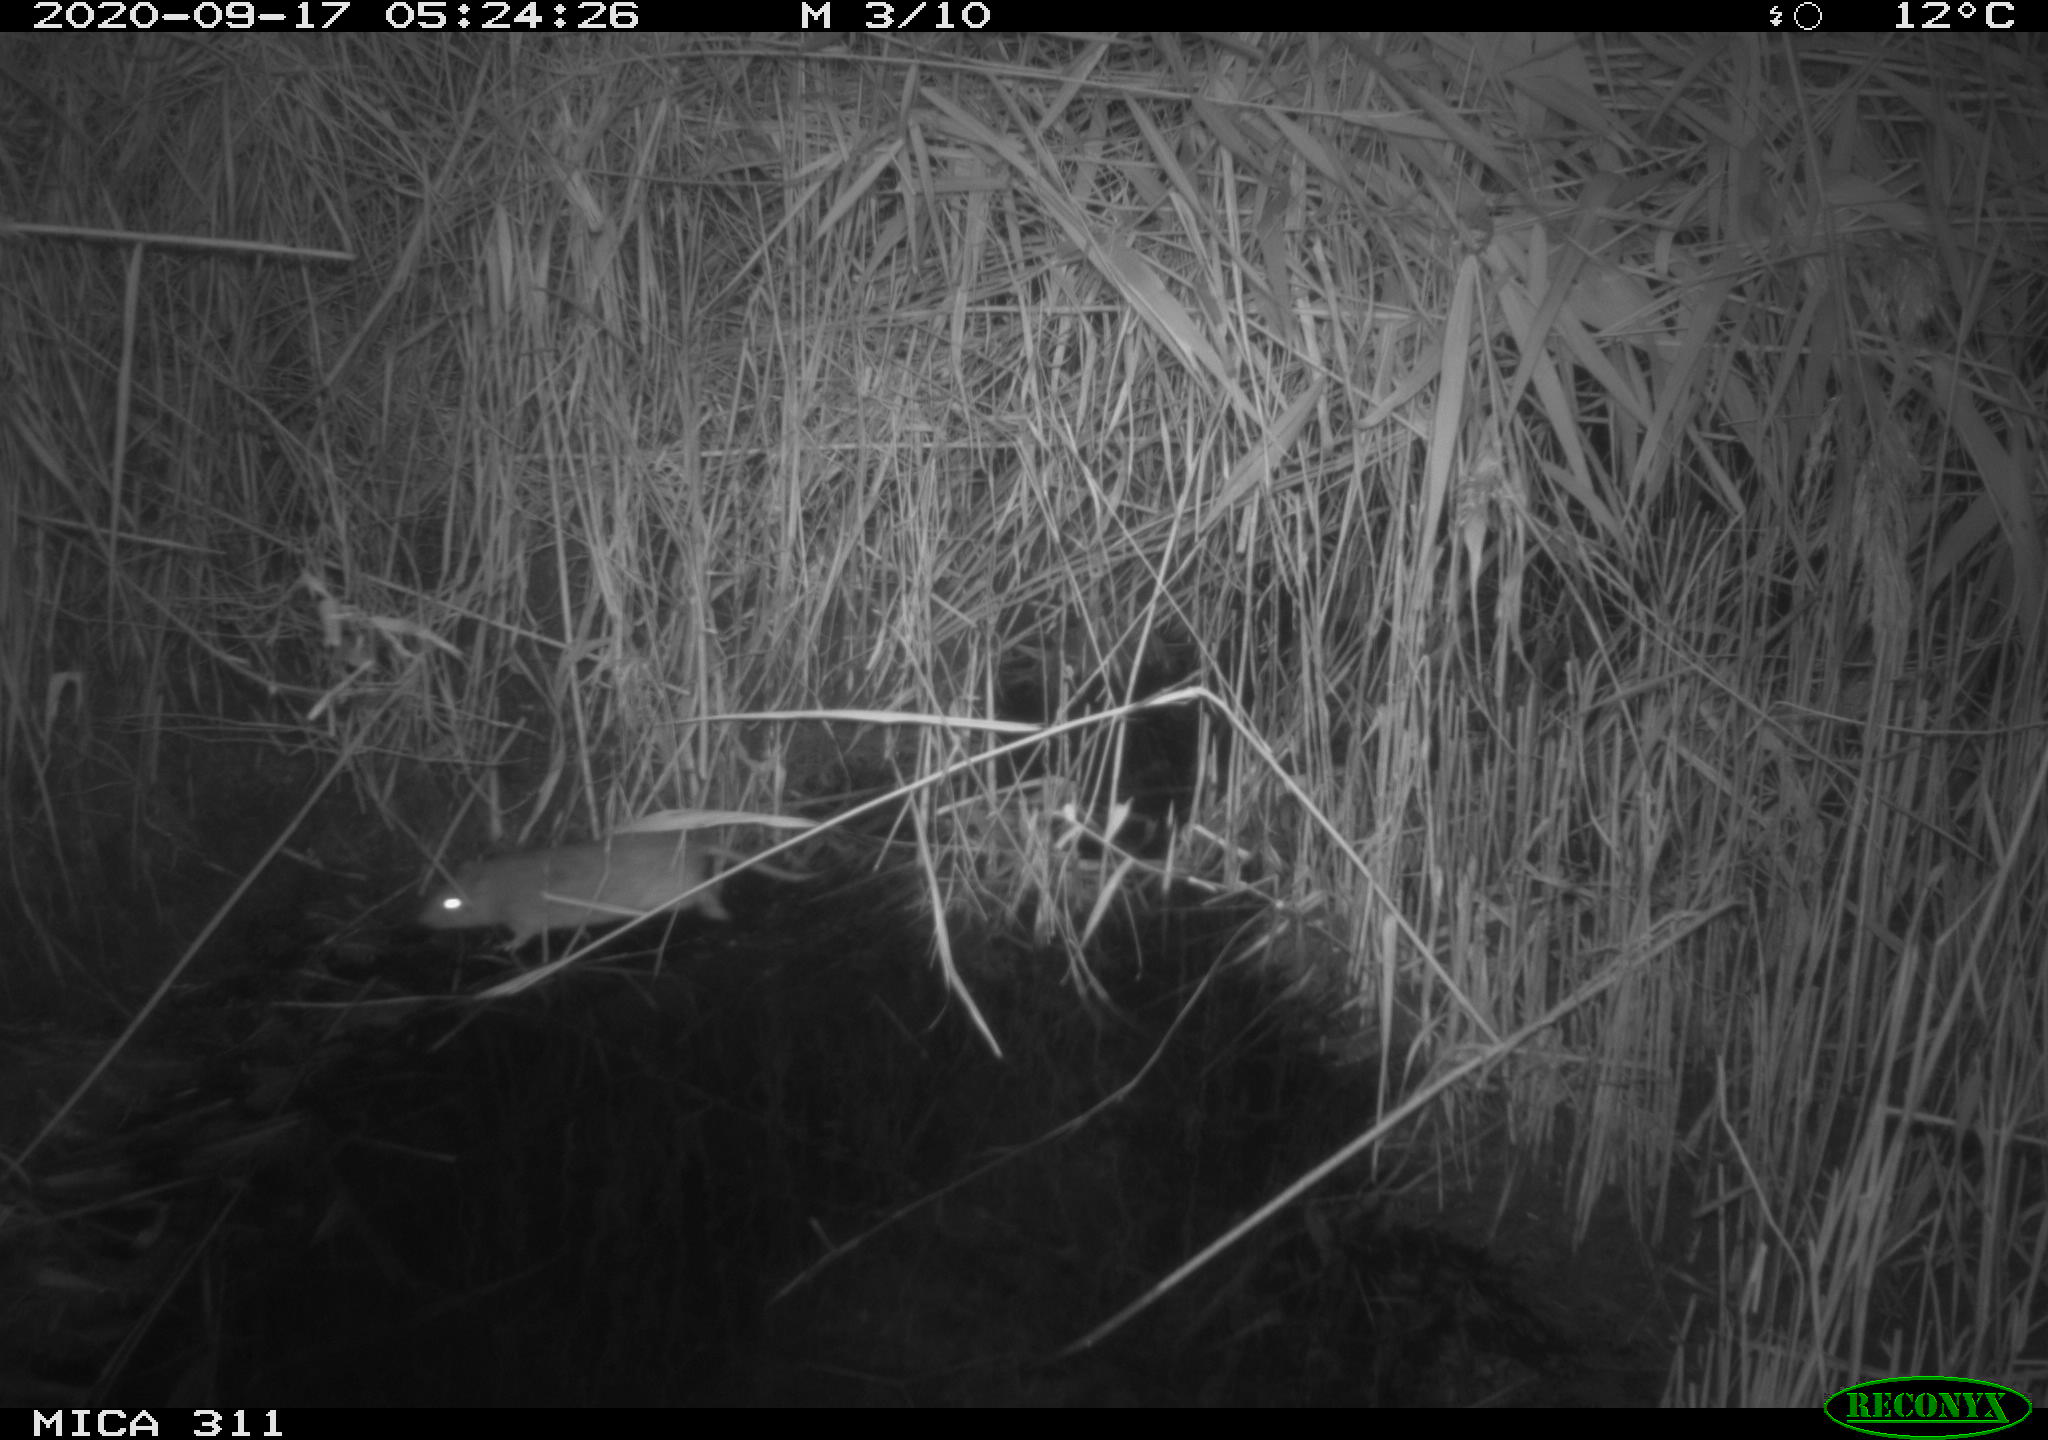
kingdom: Animalia
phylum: Chordata
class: Mammalia
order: Rodentia
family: Muridae
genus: Rattus
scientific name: Rattus norvegicus
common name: Brown rat
